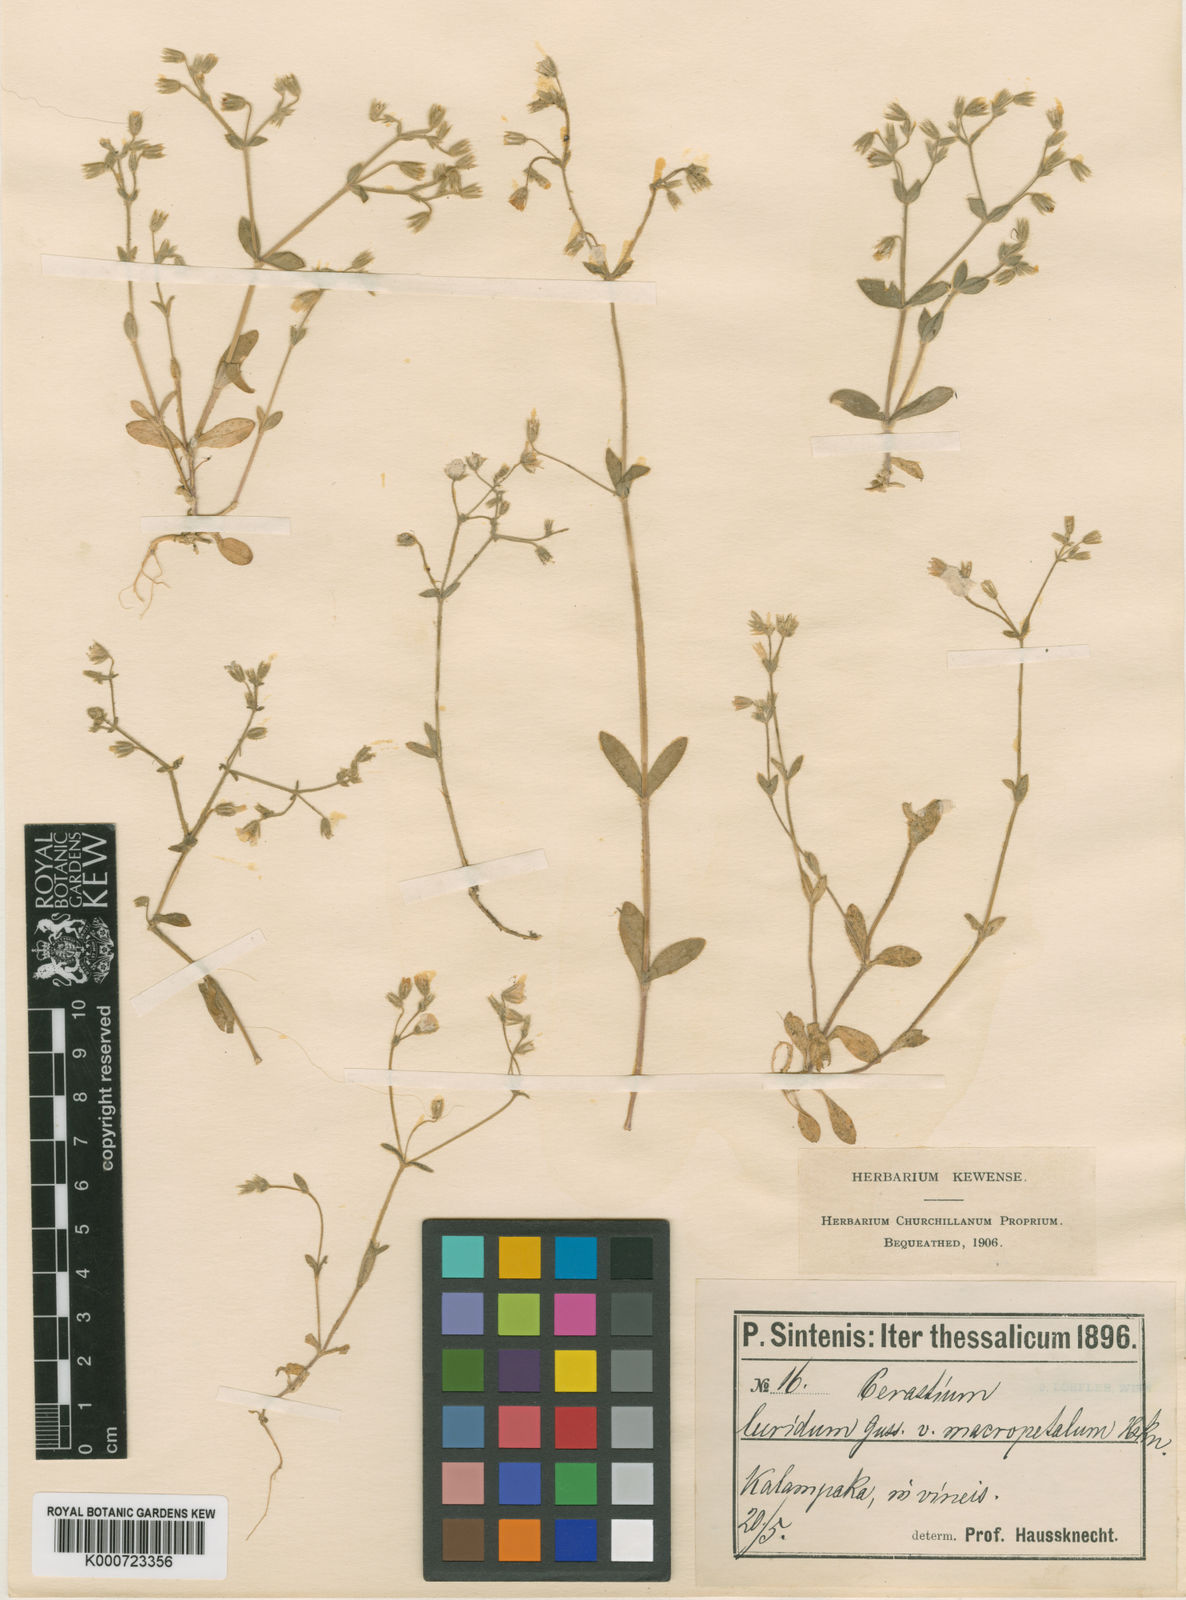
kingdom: Plantae
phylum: Tracheophyta
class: Magnoliopsida
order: Caryophyllales
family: Caryophyllaceae
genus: Cerastium
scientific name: Cerastium
